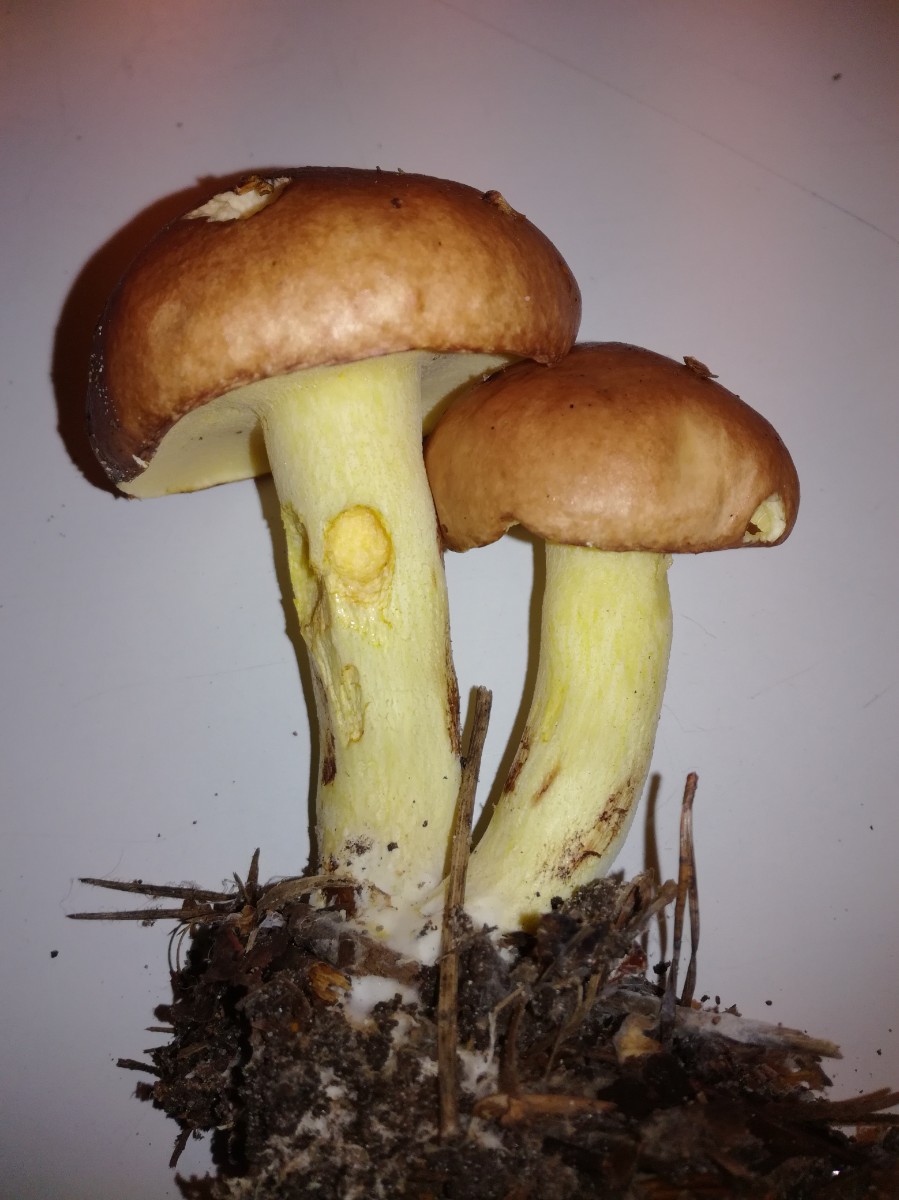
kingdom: Fungi
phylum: Basidiomycota
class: Agaricomycetes
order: Boletales
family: Suillaceae
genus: Suillus
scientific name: Suillus granulatus
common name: kornet slimrørhat
